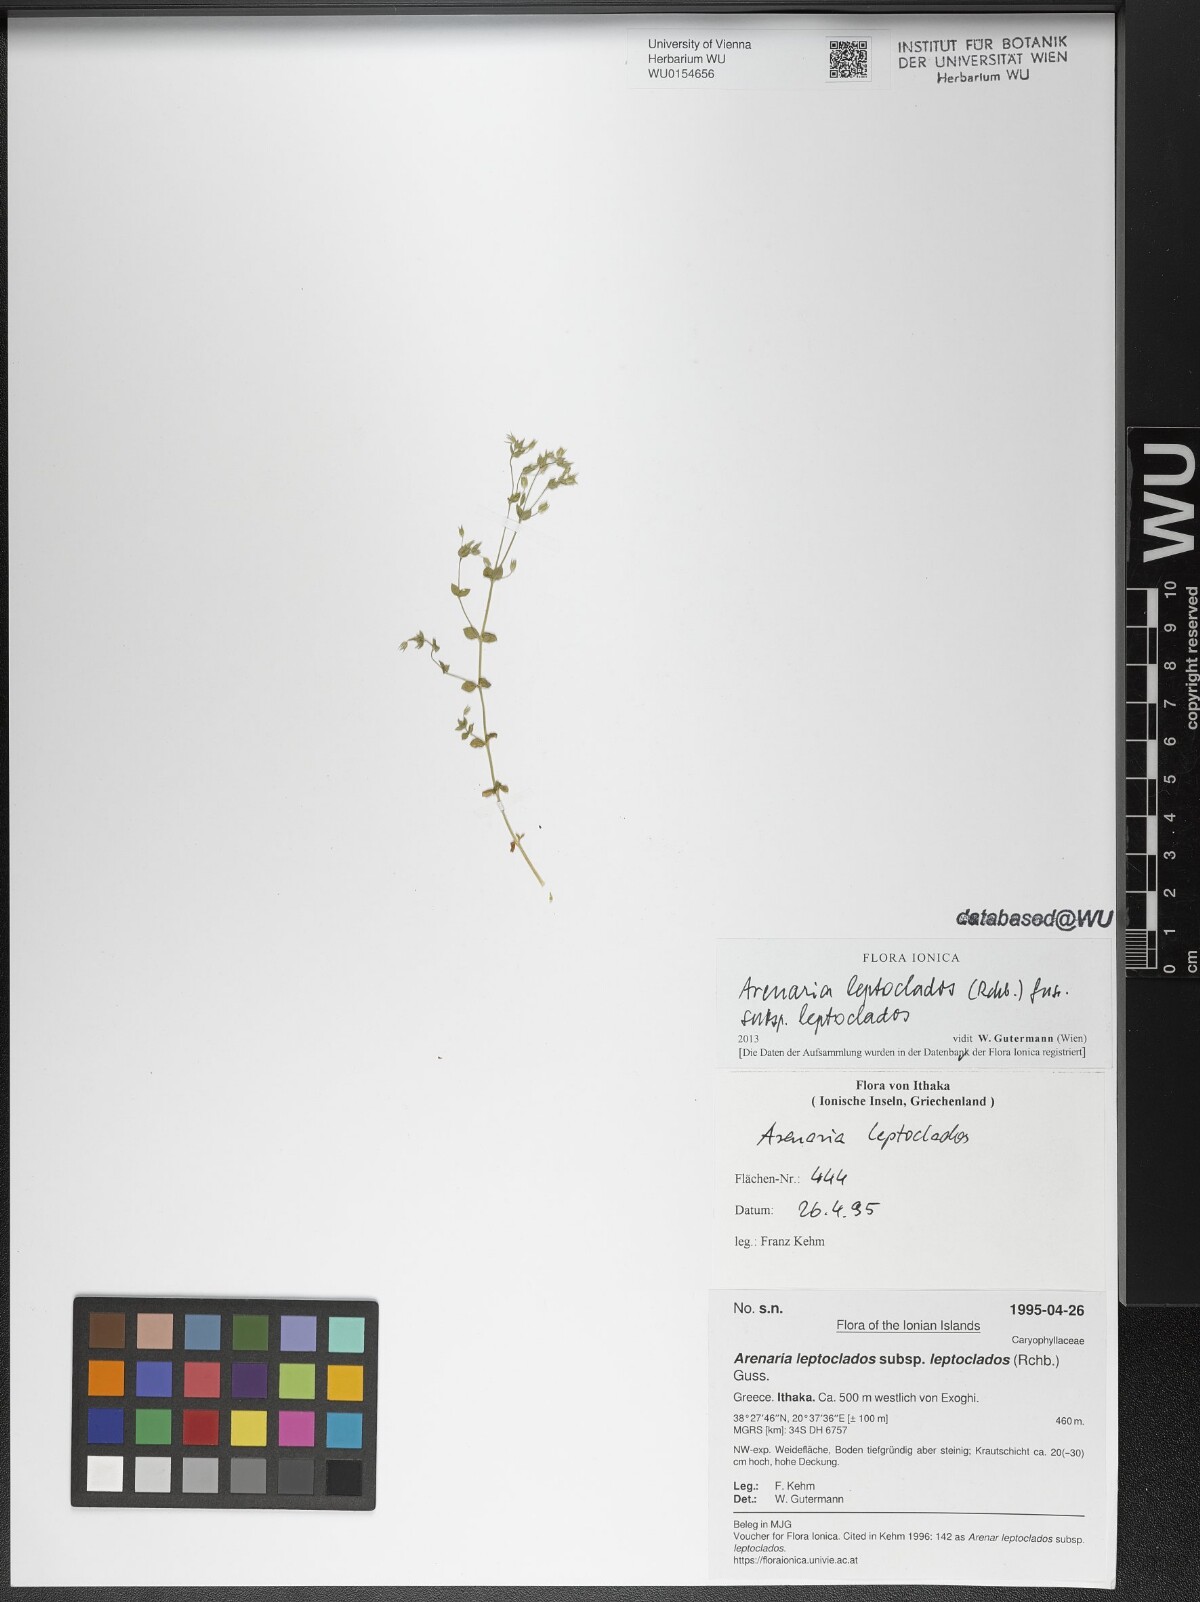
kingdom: Plantae
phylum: Tracheophyta
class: Magnoliopsida
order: Caryophyllales
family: Caryophyllaceae
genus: Arenaria
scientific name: Arenaria leptoclados
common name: Thyme-leaved sandwort
